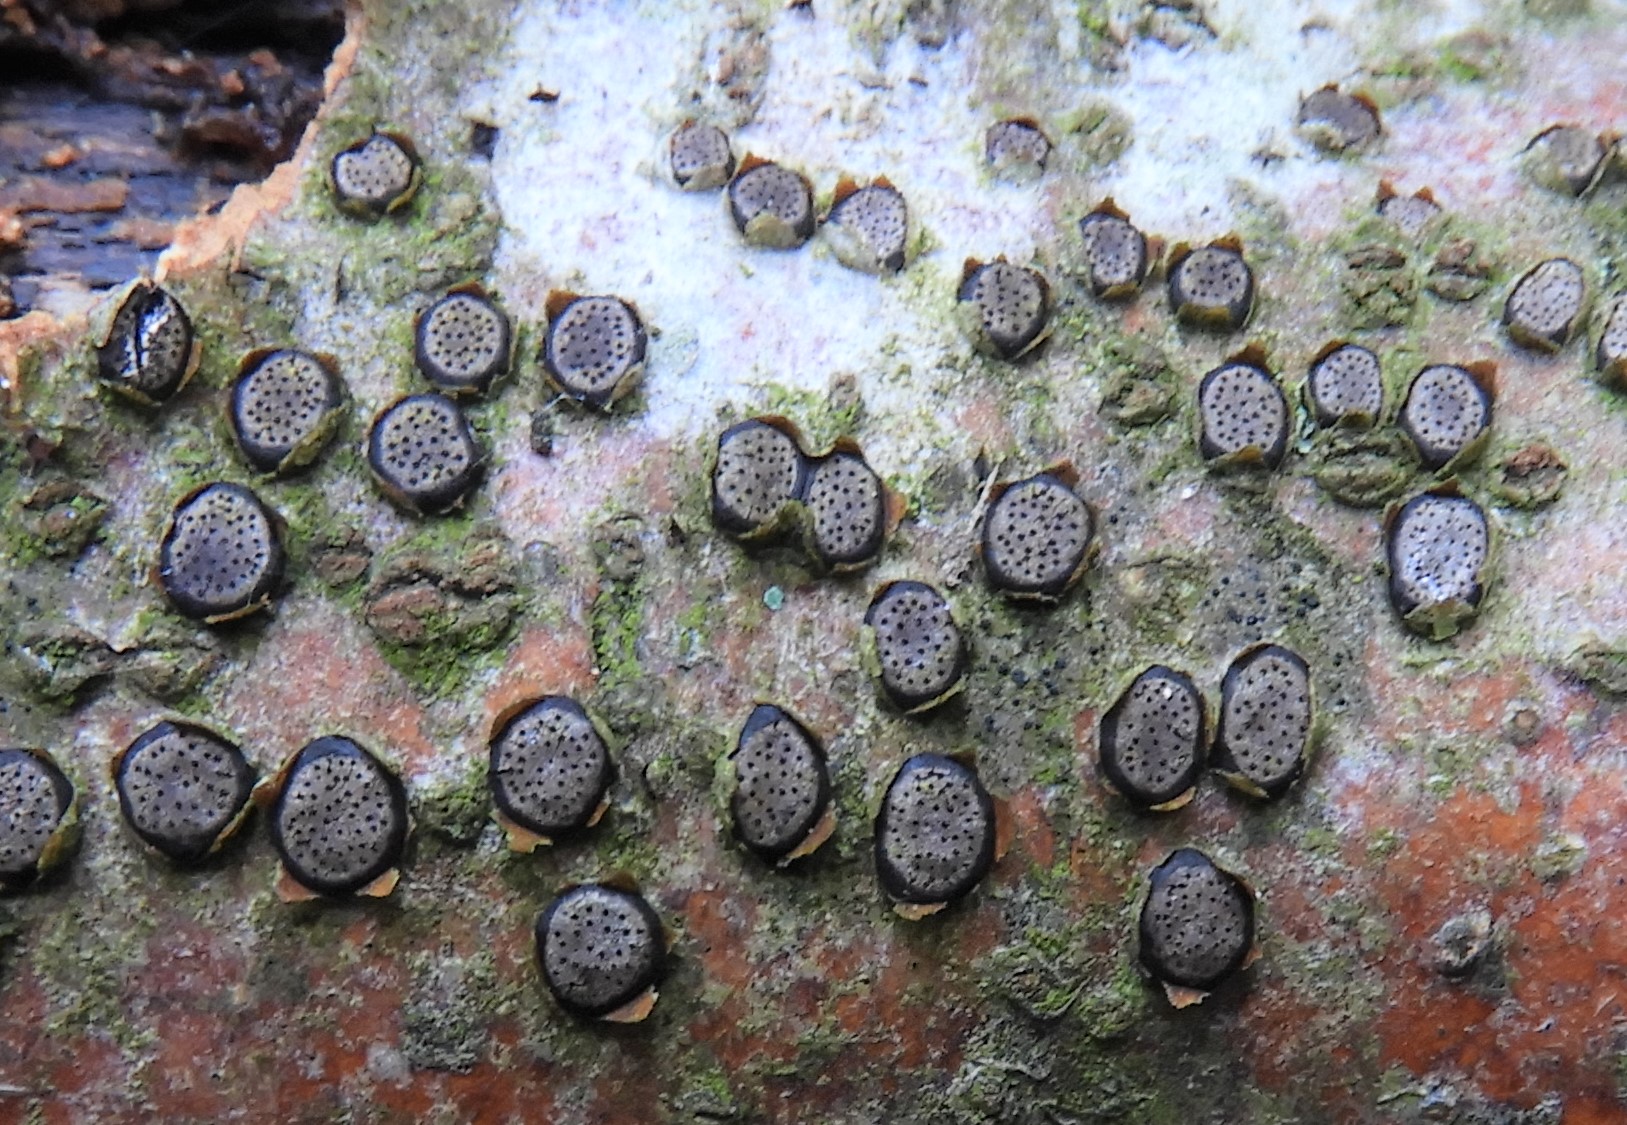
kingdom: Fungi
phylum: Ascomycota
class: Sordariomycetes
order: Xylariales
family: Diatrypaceae
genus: Diatrype
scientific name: Diatrype disciformis
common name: kant-kulskorpe
